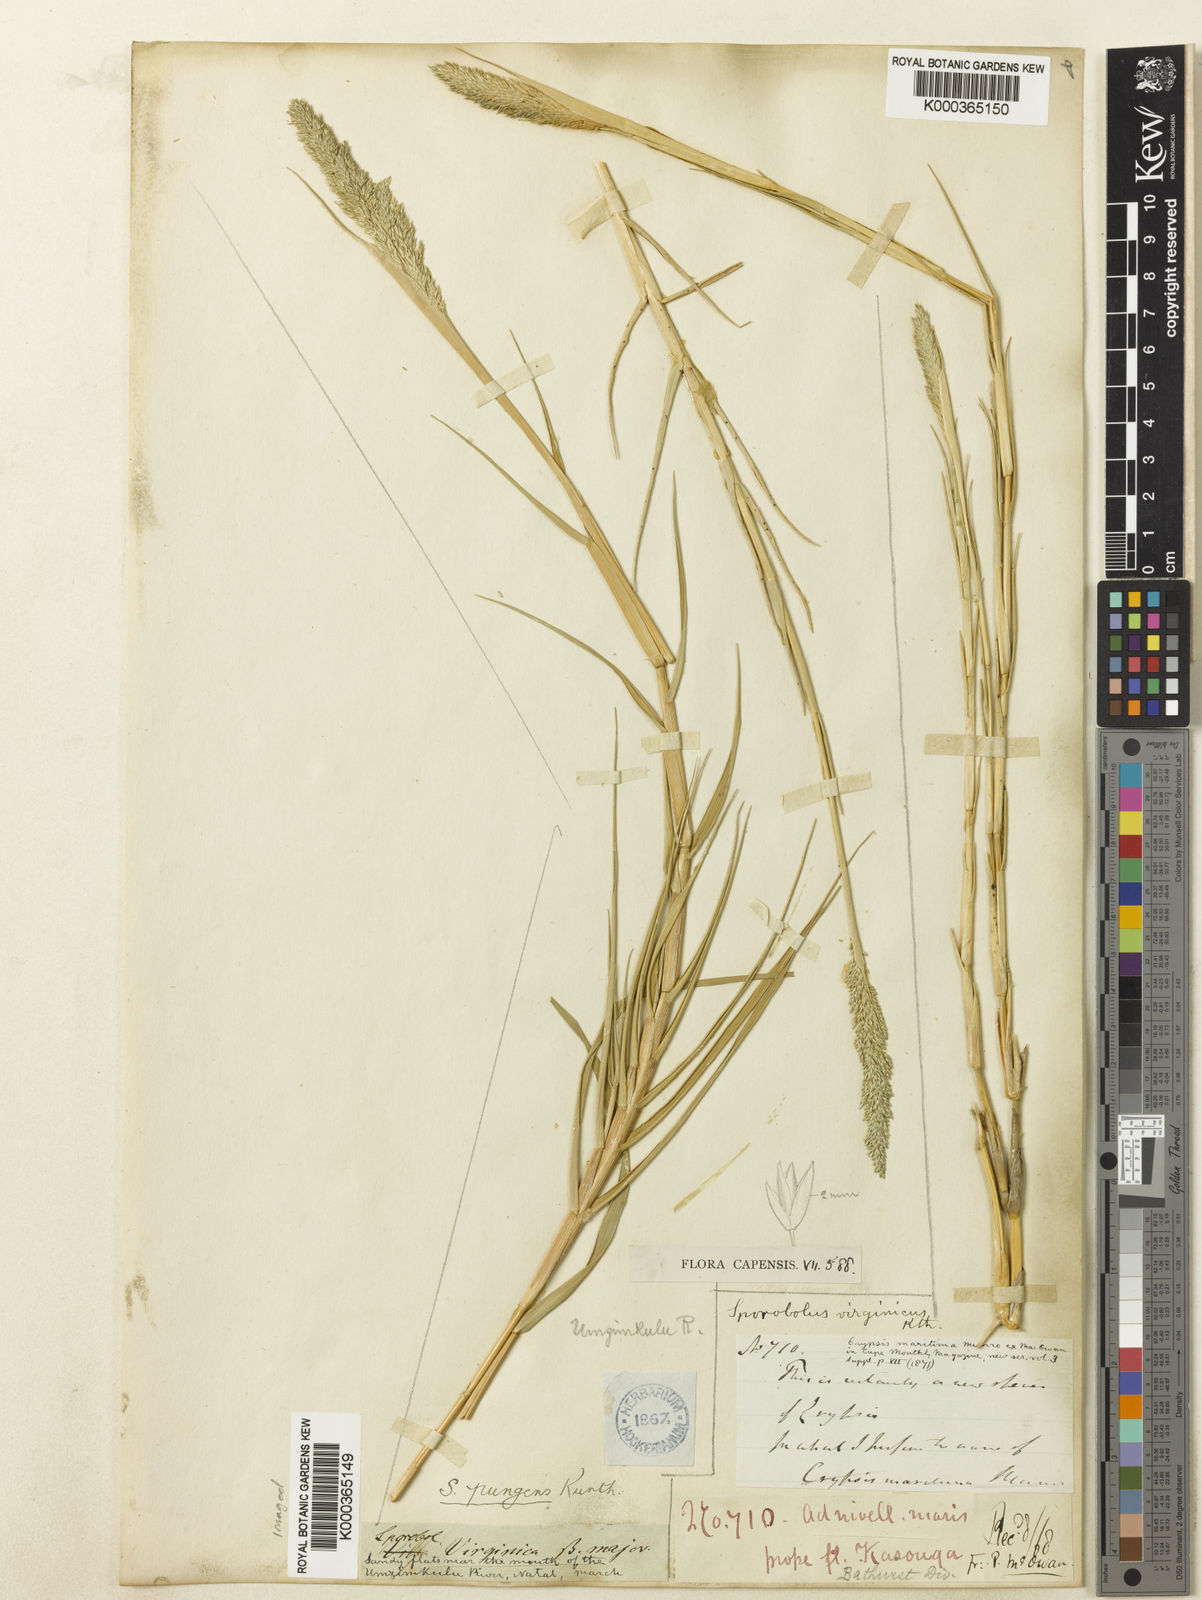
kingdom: Plantae
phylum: Tracheophyta
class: Liliopsida
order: Poales
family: Poaceae
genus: Sporobolus
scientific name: Sporobolus virginicus
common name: Beach dropseed
